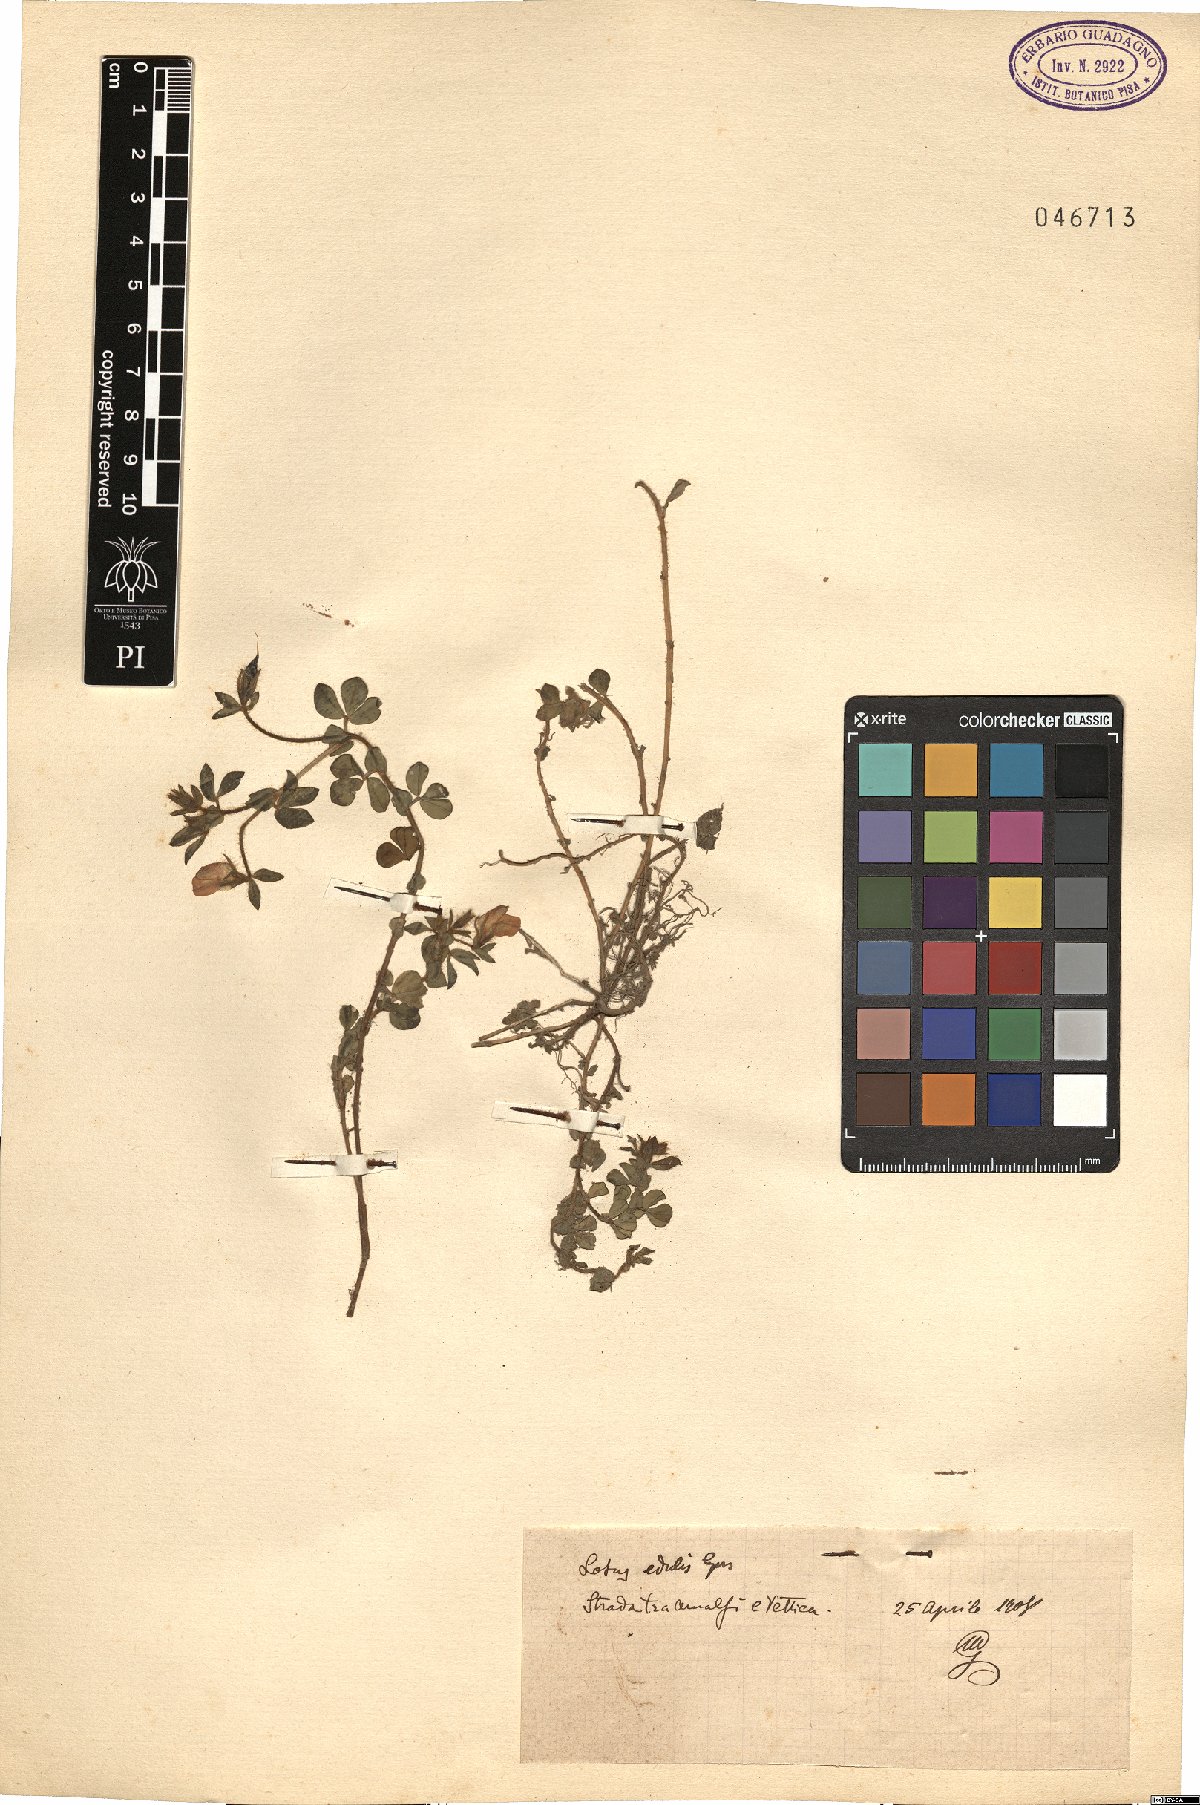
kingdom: Plantae
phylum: Tracheophyta
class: Magnoliopsida
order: Fabales
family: Fabaceae
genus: Lotus
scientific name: Lotus edulis
